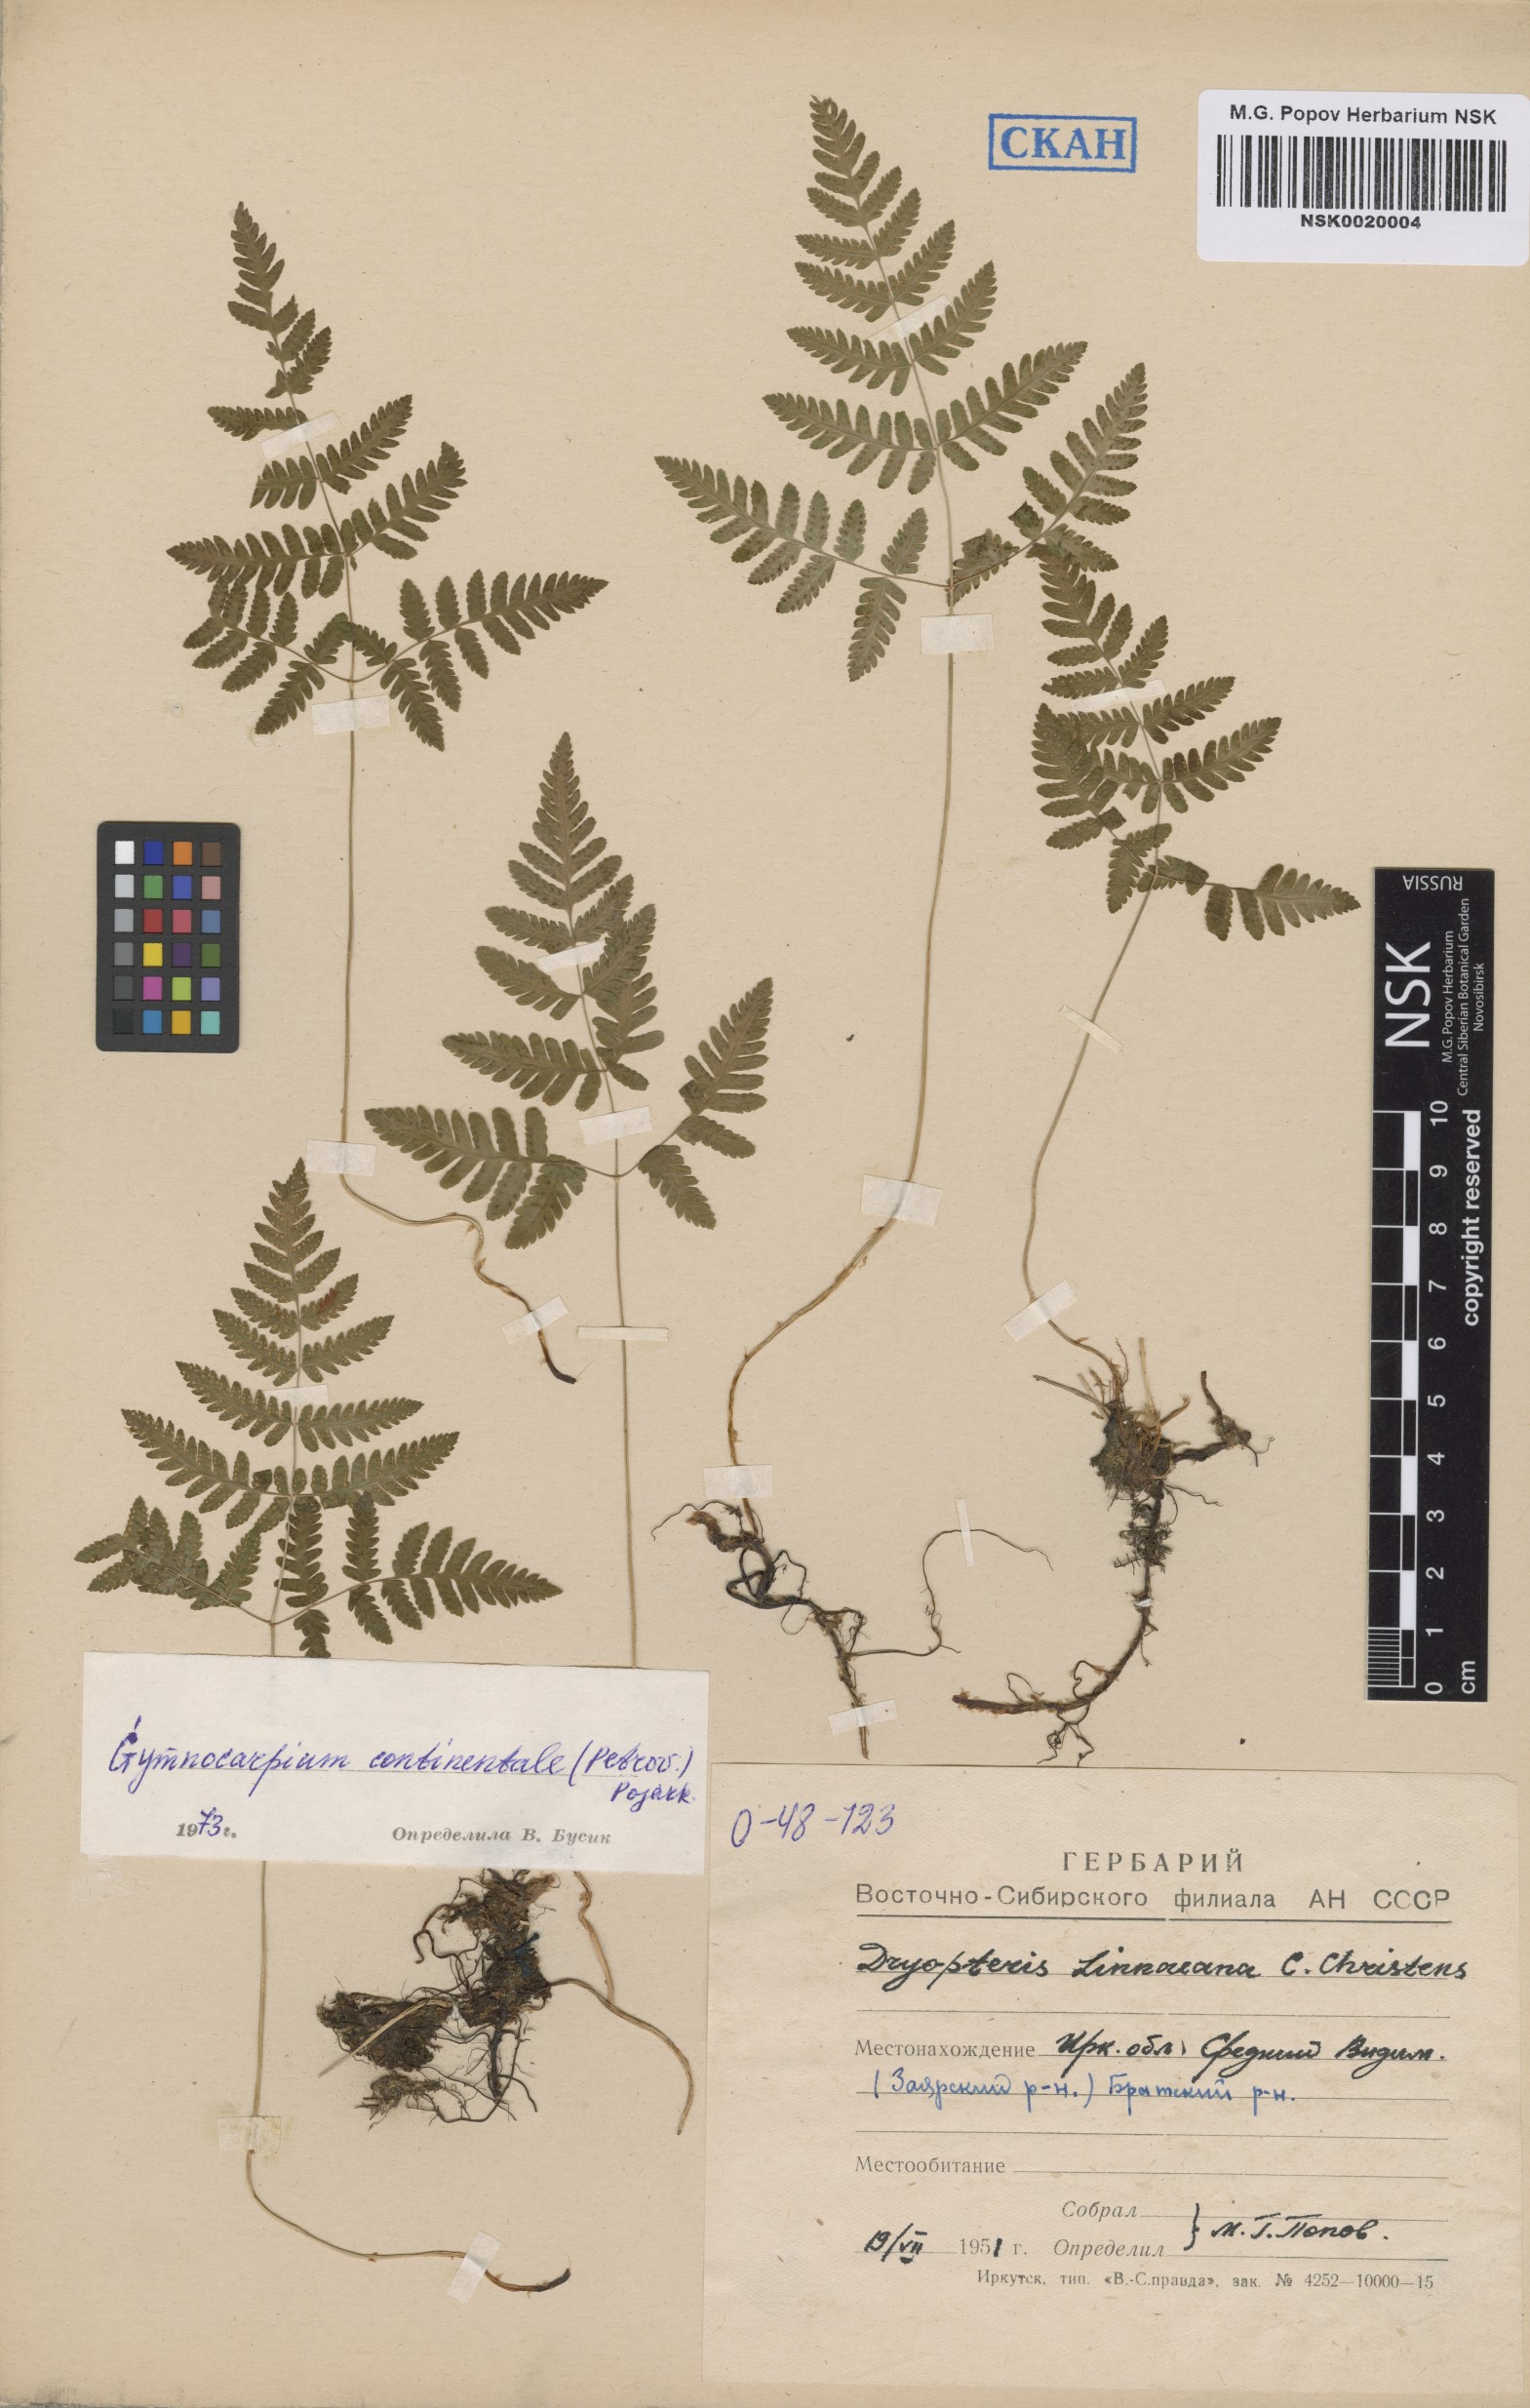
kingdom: Plantae
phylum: Tracheophyta
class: Polypodiopsida
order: Polypodiales
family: Cystopteridaceae
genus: Gymnocarpium
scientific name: Gymnocarpium continentale
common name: Asian oak fern
